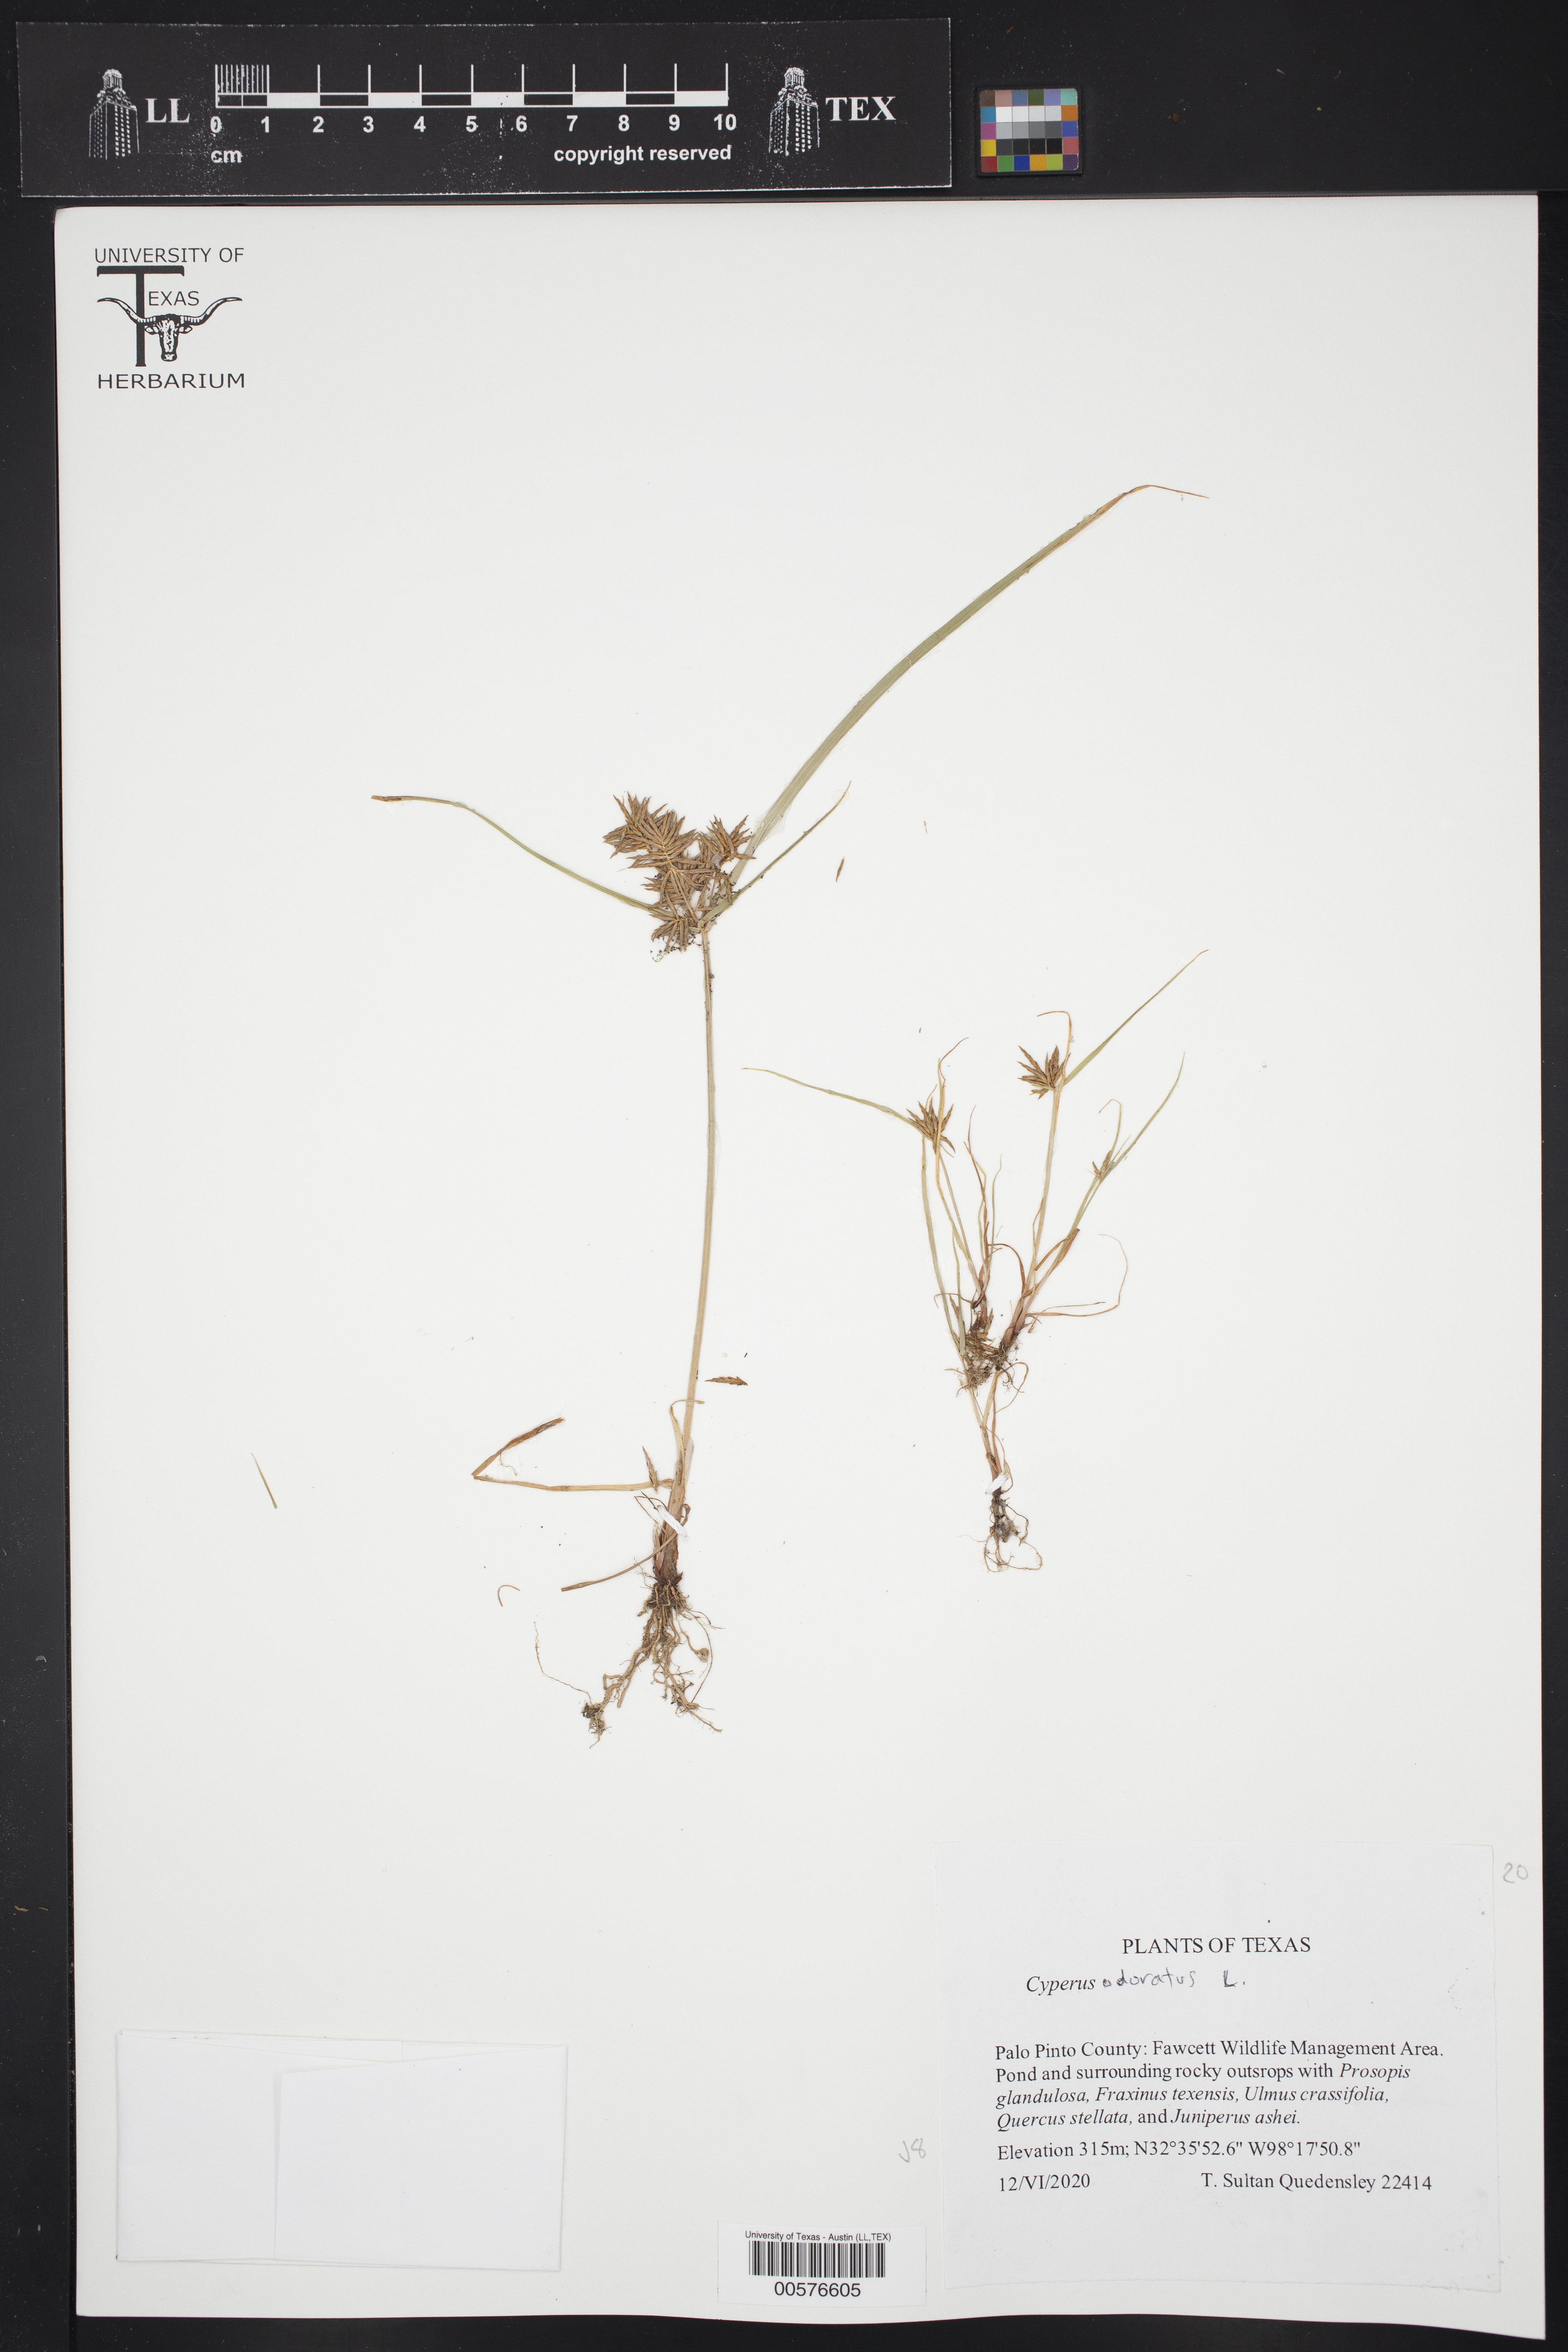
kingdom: Plantae
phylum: Tracheophyta
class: Liliopsida
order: Poales
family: Cyperaceae
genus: Cyperus
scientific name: Cyperus odoratus
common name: Fragrant flatsedge
